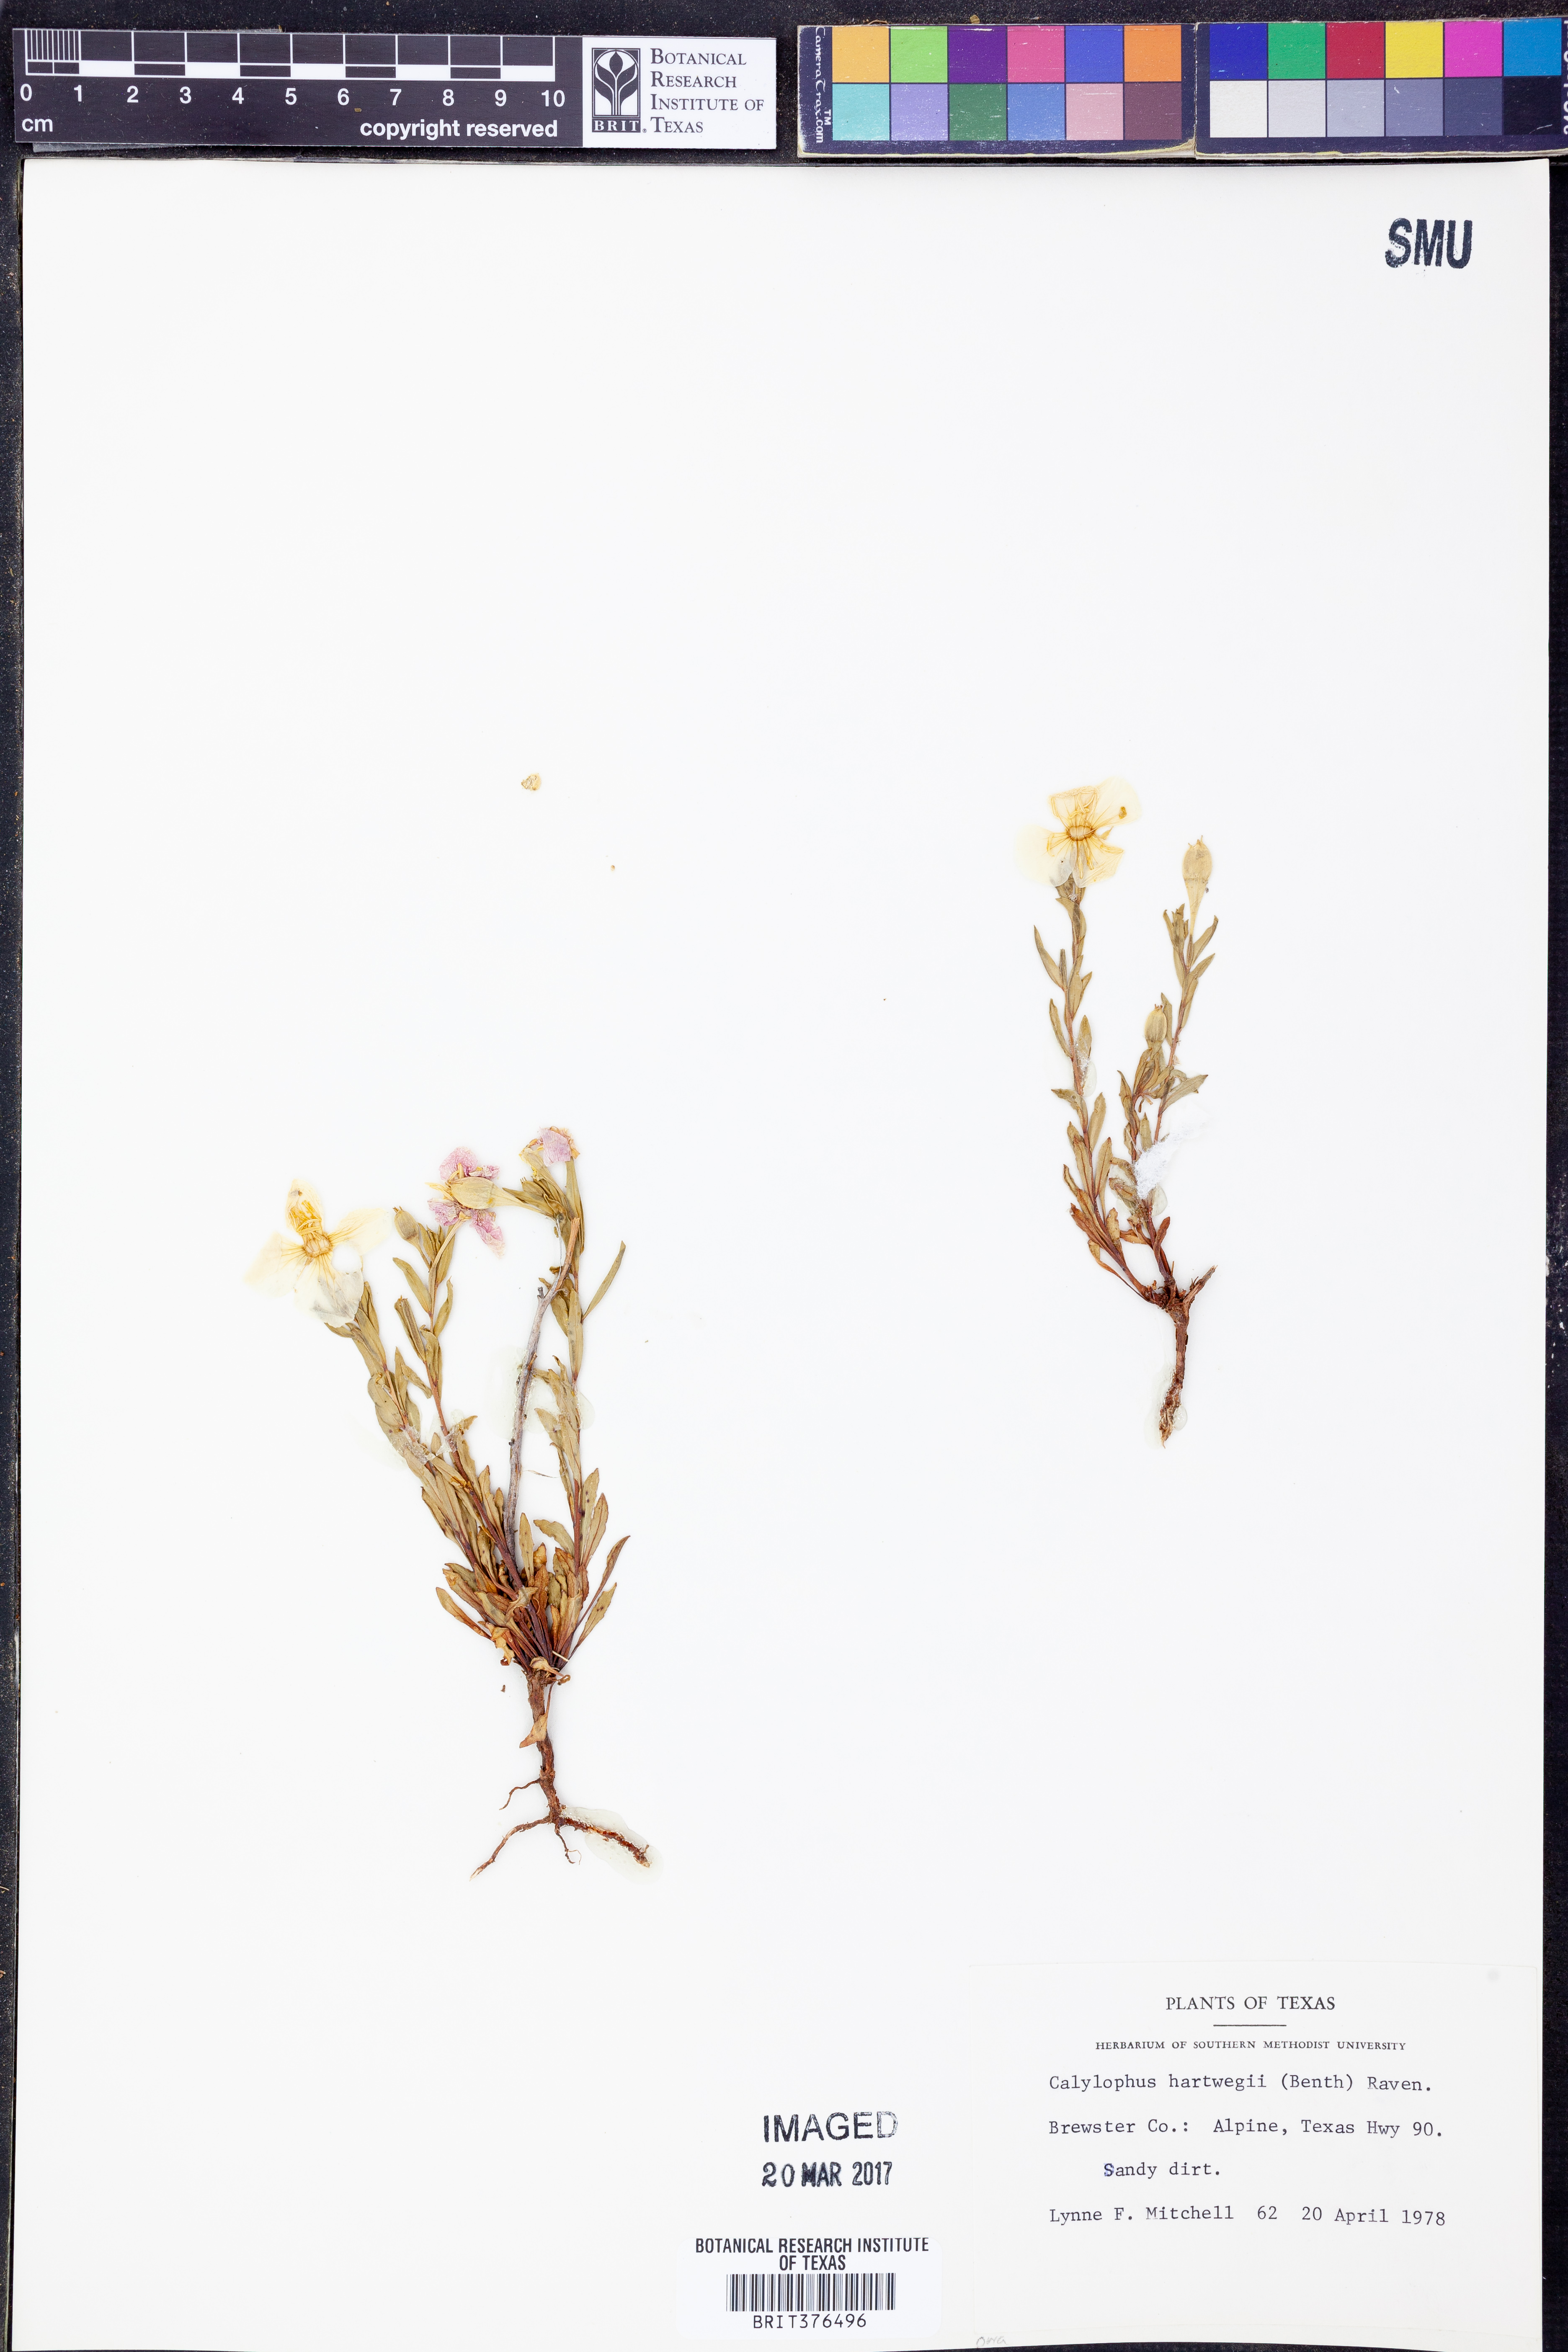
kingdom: Plantae
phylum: Tracheophyta
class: Magnoliopsida
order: Myrtales
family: Onagraceae
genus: Oenothera
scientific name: Oenothera hartwegii
